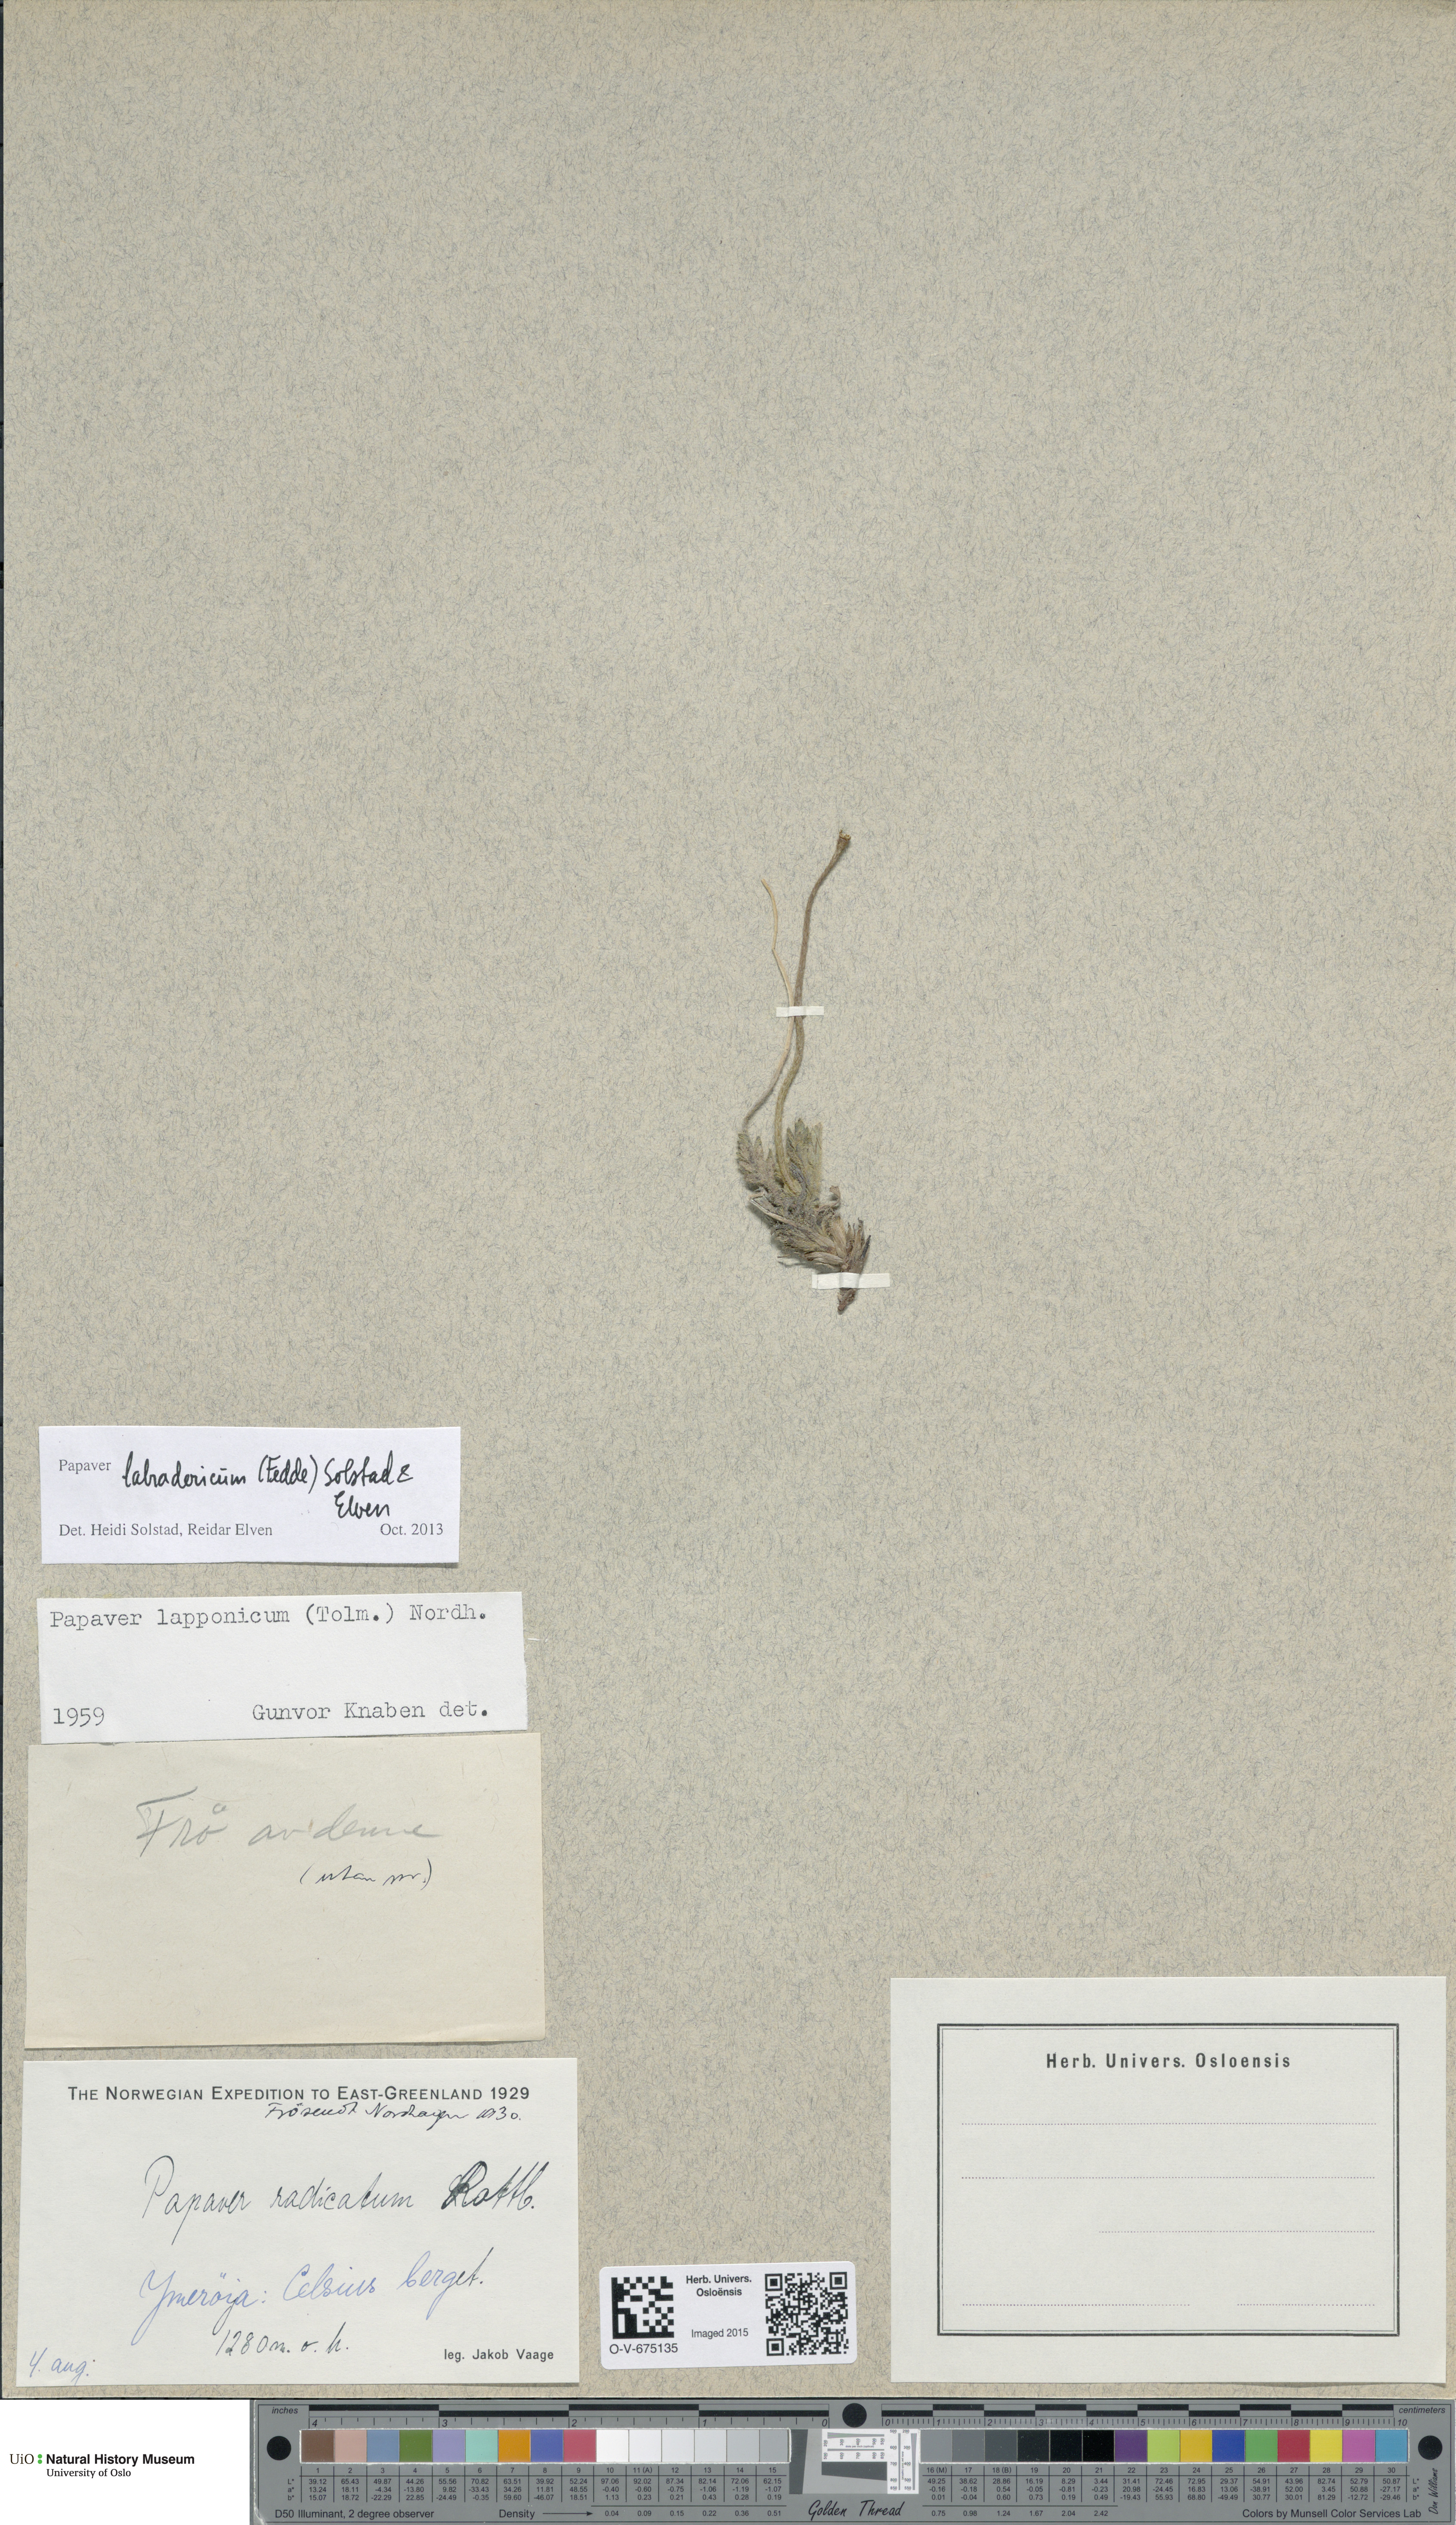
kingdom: Plantae
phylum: Tracheophyta
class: Magnoliopsida
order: Ranunculales
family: Papaveraceae
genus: Papaver
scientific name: Papaver radicatum
